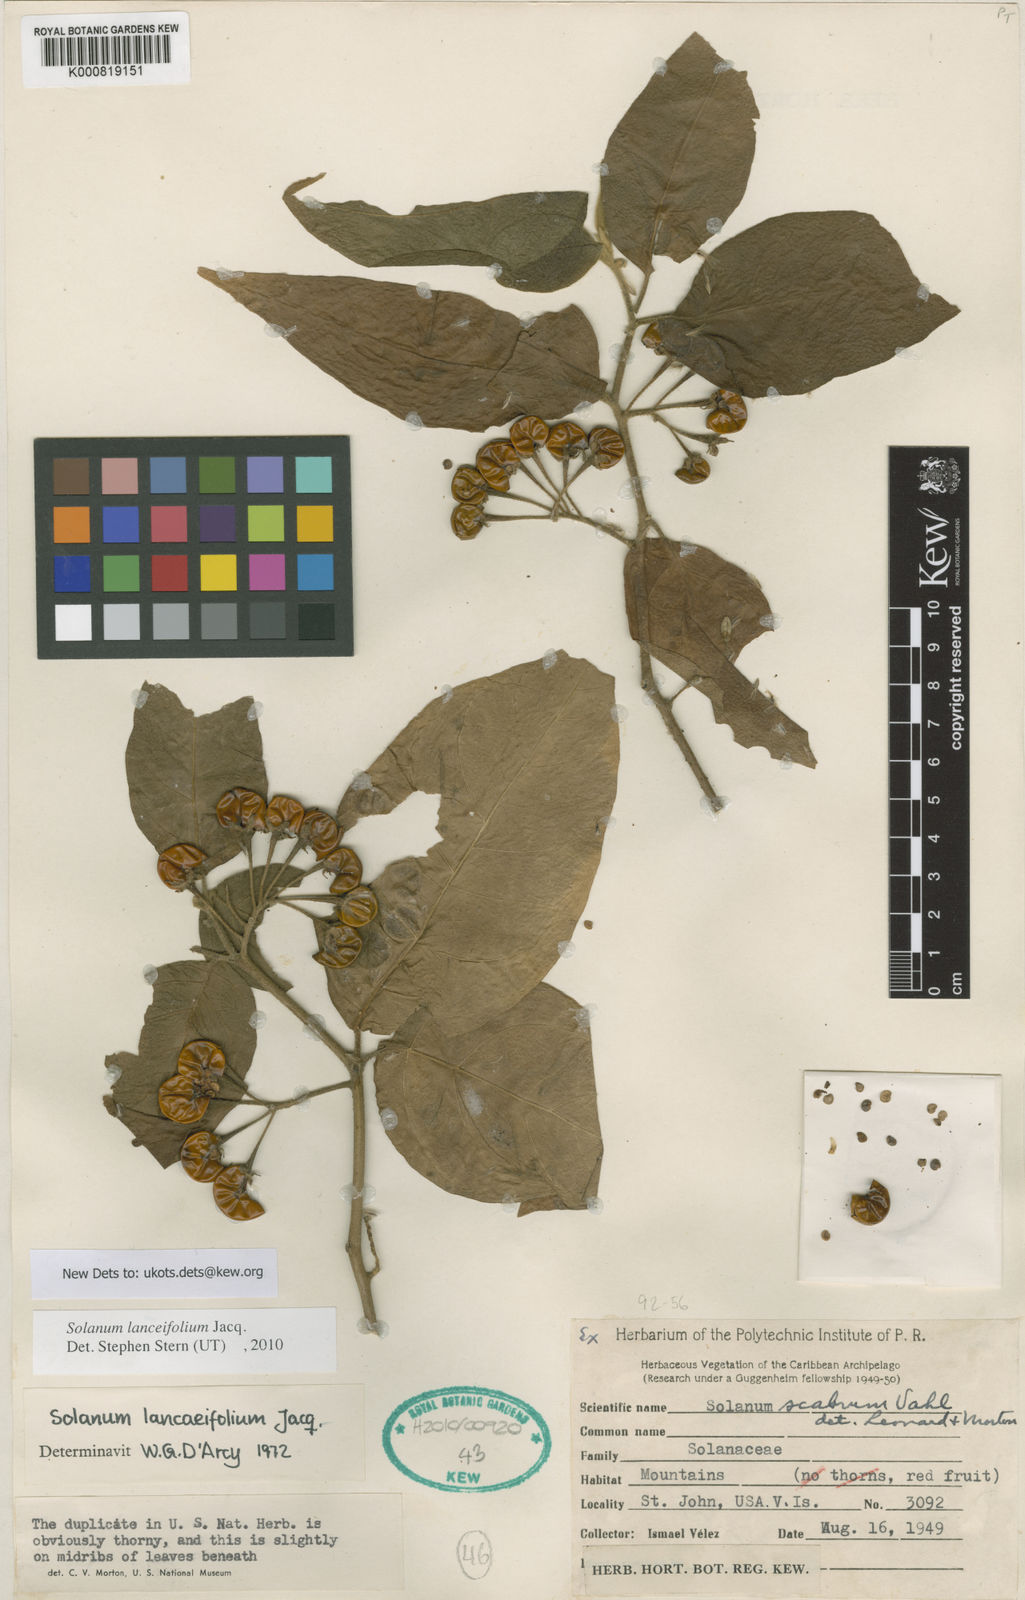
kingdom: Plantae
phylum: Tracheophyta
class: Magnoliopsida
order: Solanales
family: Solanaceae
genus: Solanum
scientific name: Solanum lanceifolium
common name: Lanceleaf nightshade
